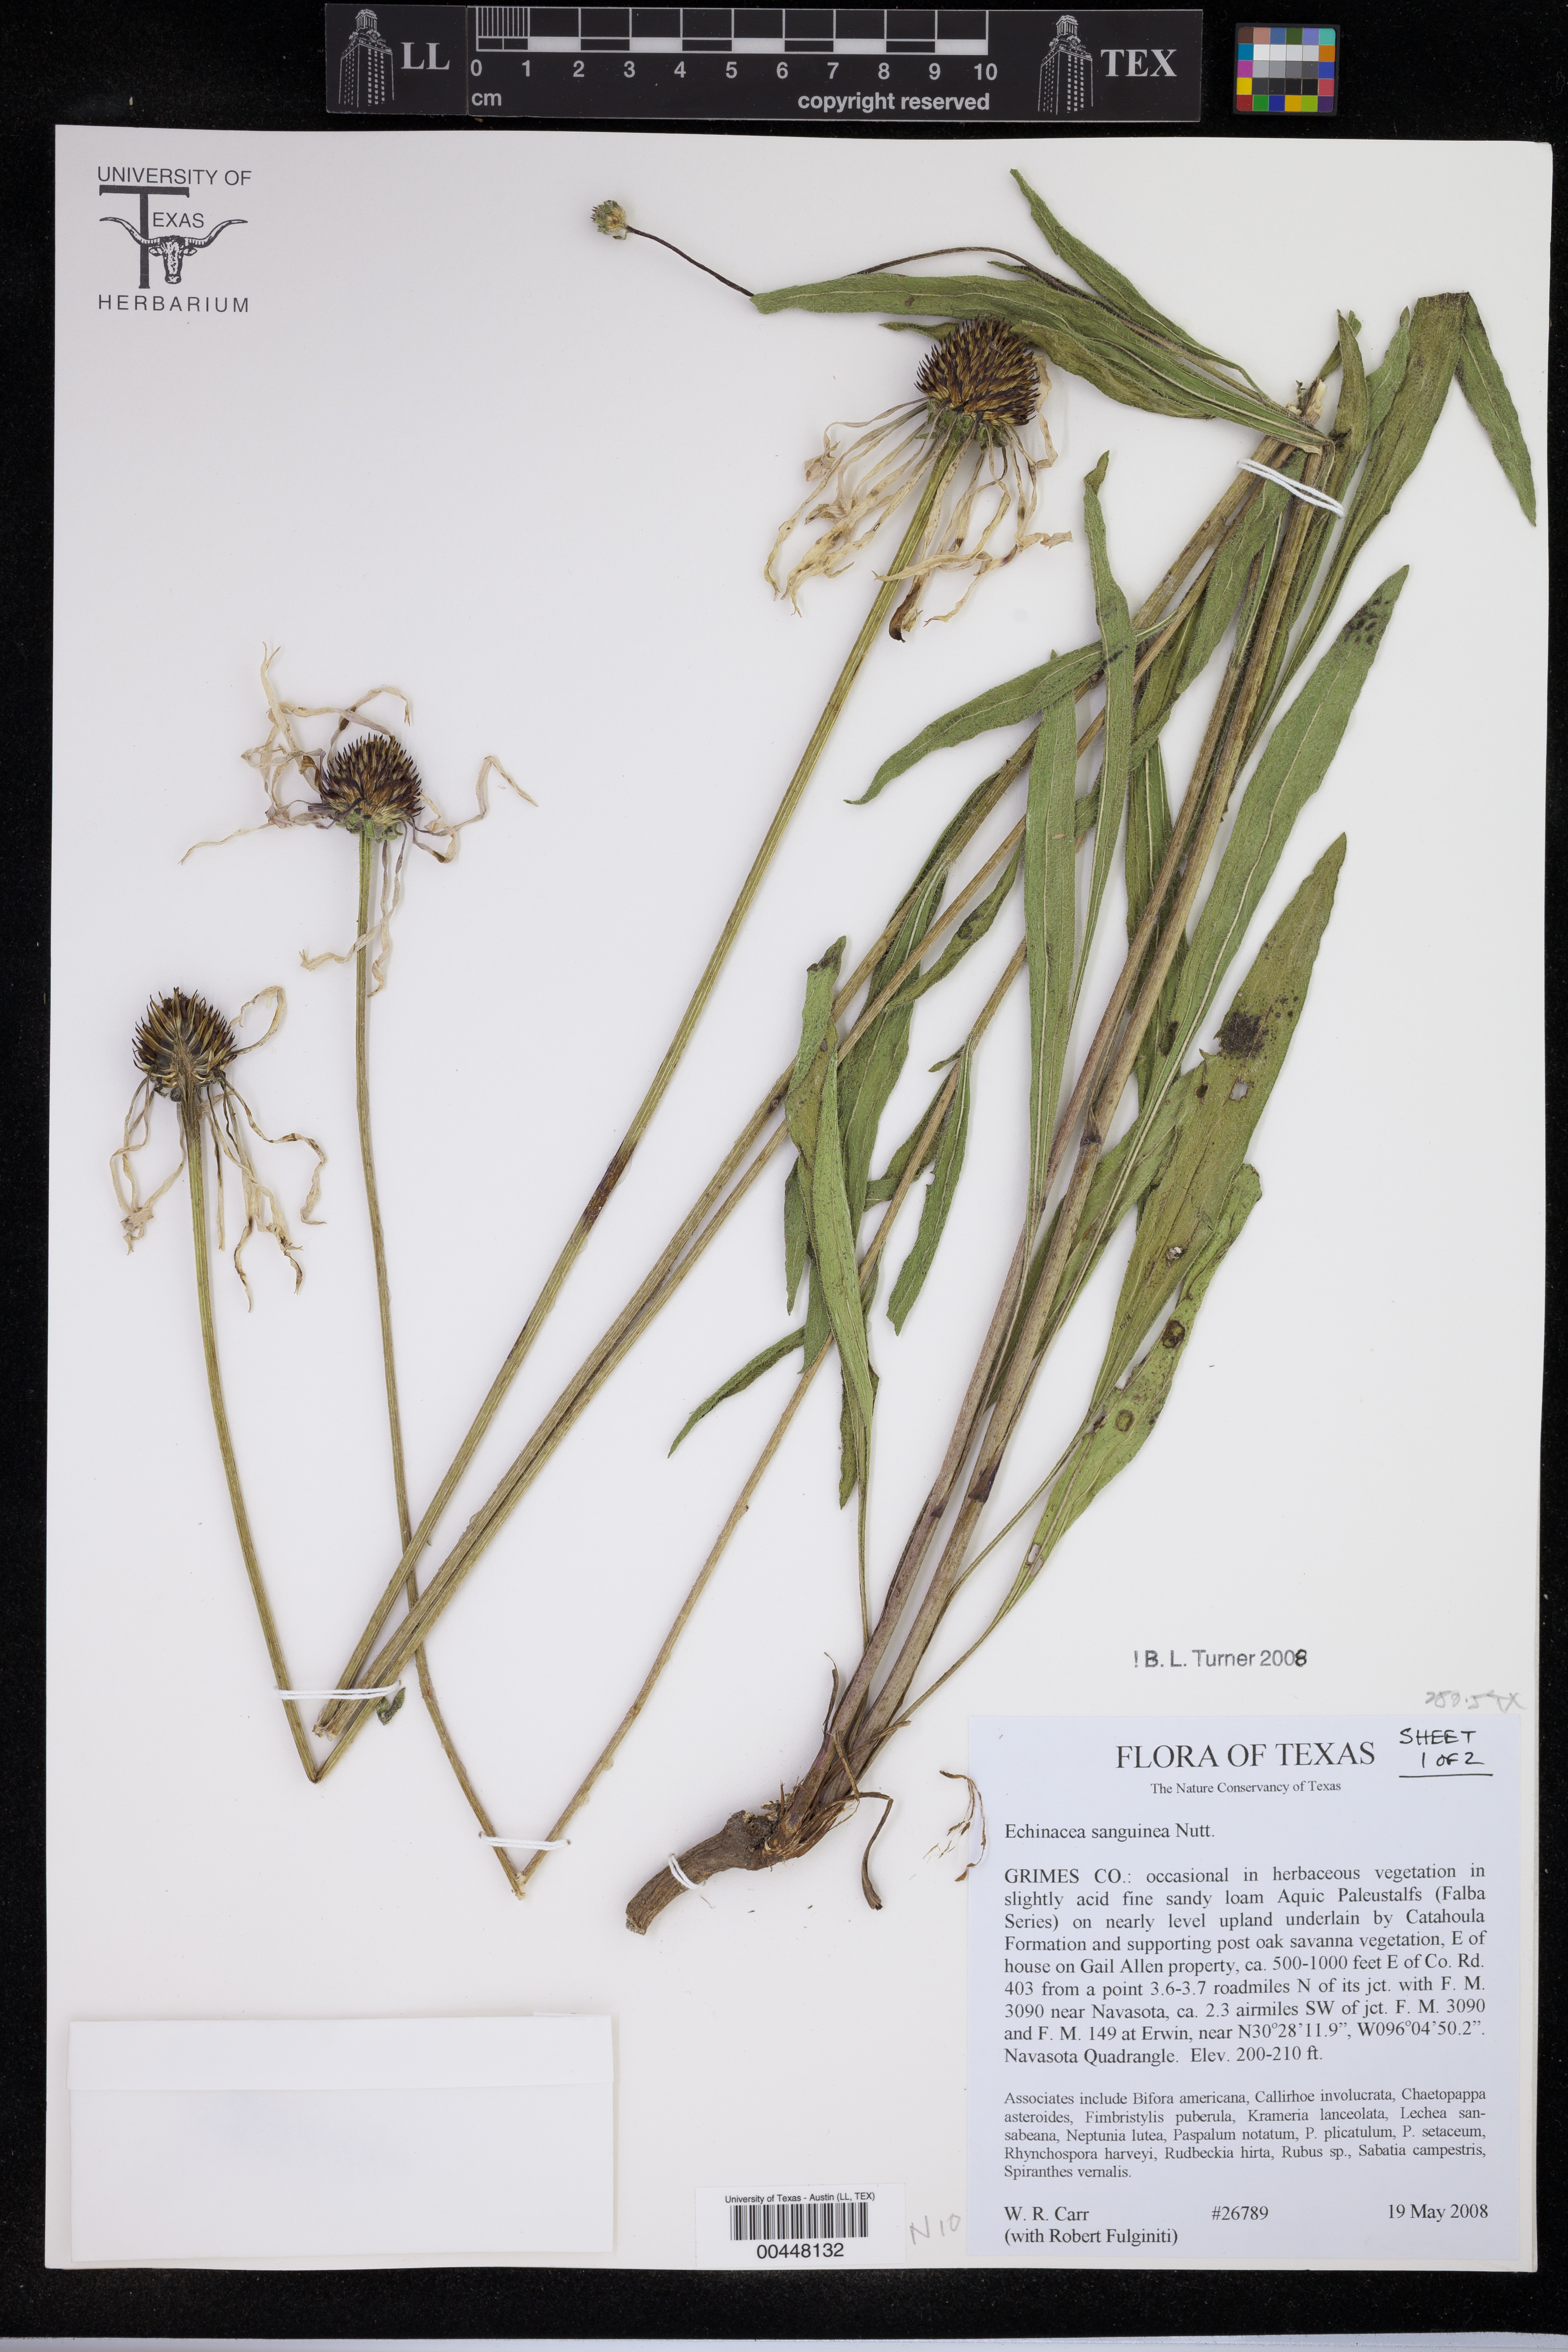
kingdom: Plantae
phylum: Tracheophyta
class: Magnoliopsida
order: Asterales
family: Asteraceae
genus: Echinacea
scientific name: Echinacea sanguinea
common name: Sanguine purple-coneflower
